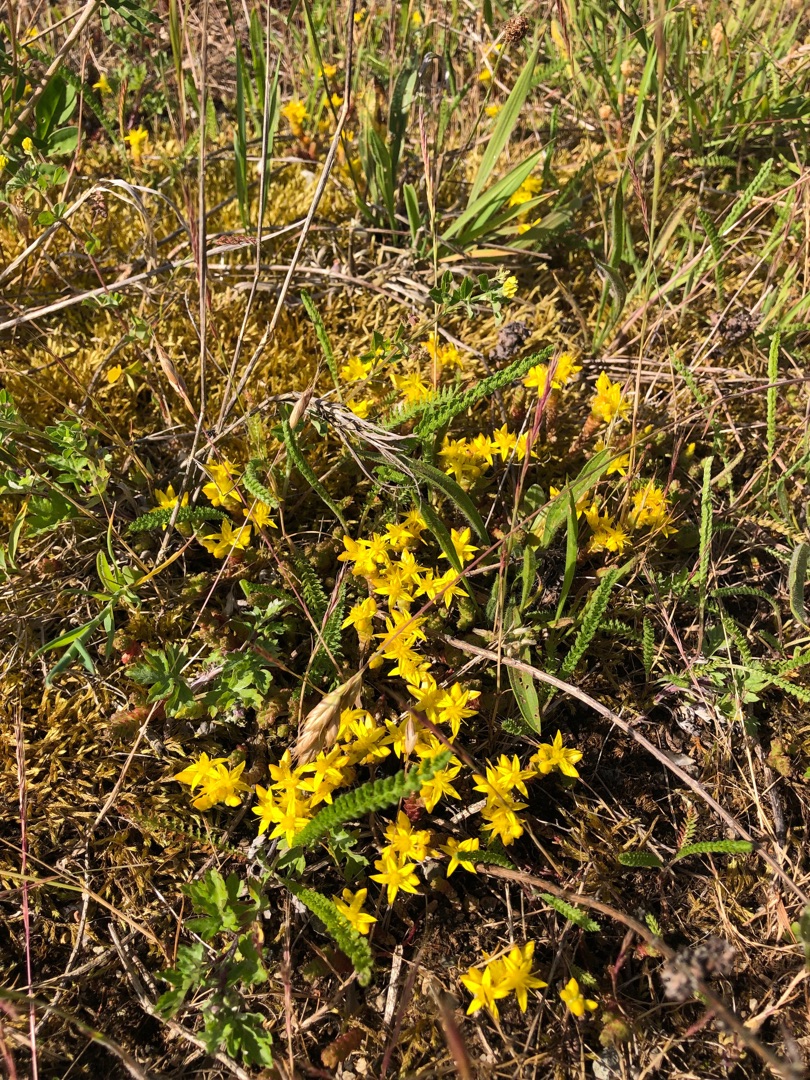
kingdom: Plantae
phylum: Tracheophyta
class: Magnoliopsida
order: Saxifragales
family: Crassulaceae
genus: Sedum
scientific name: Sedum acre
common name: Bidende stenurt
